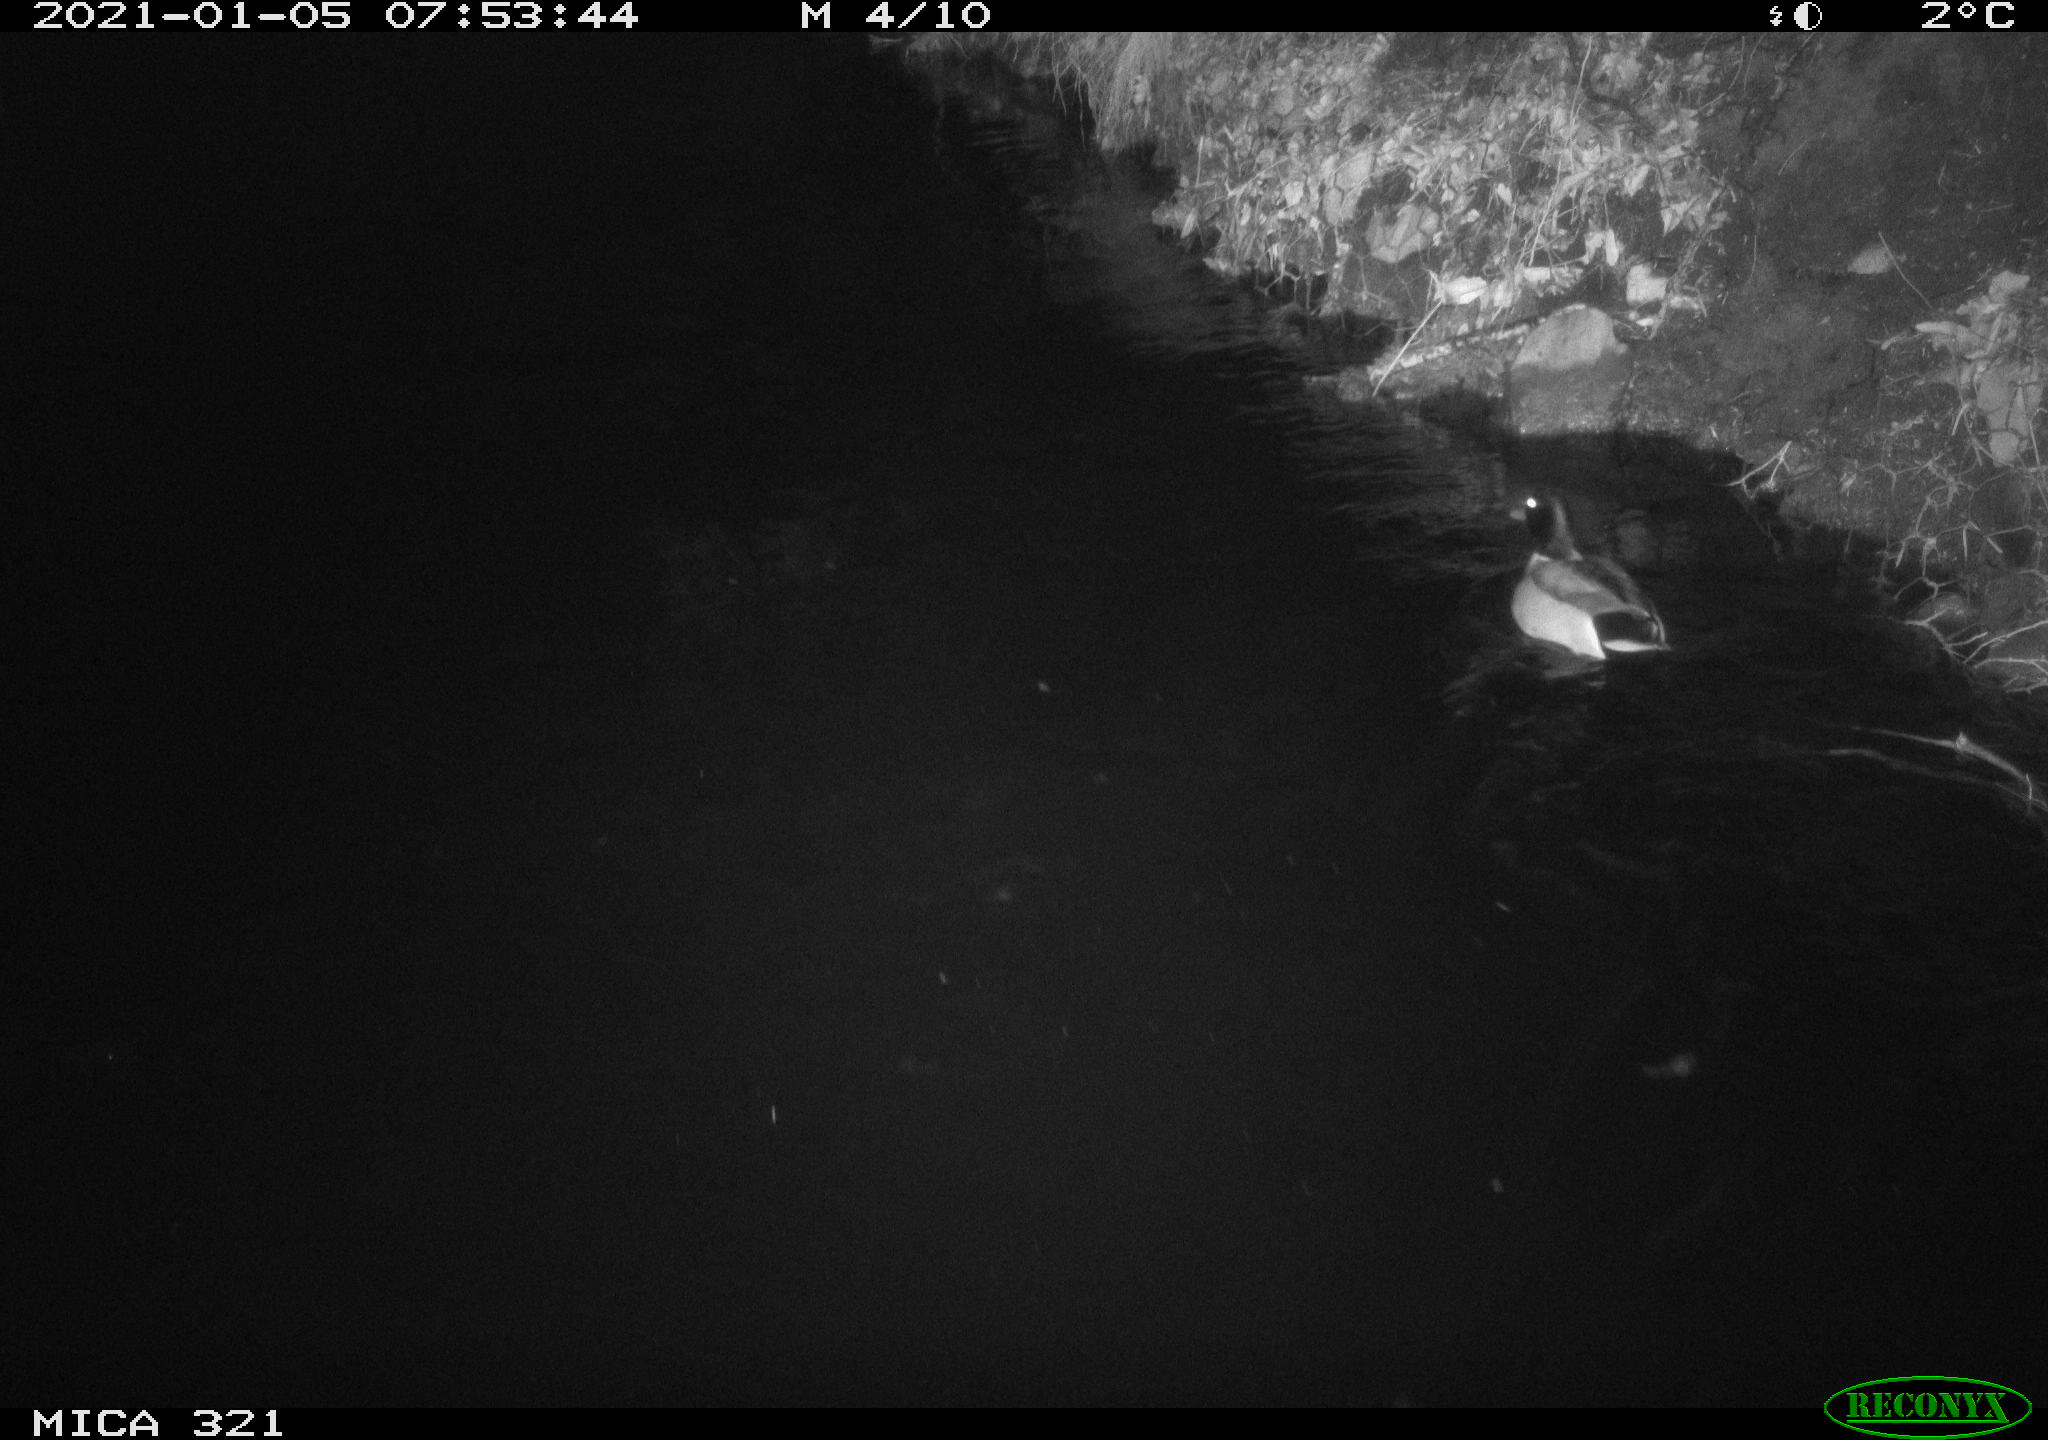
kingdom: Animalia
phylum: Chordata
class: Aves
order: Anseriformes
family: Anatidae
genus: Anas
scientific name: Anas platyrhynchos
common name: Mallard
